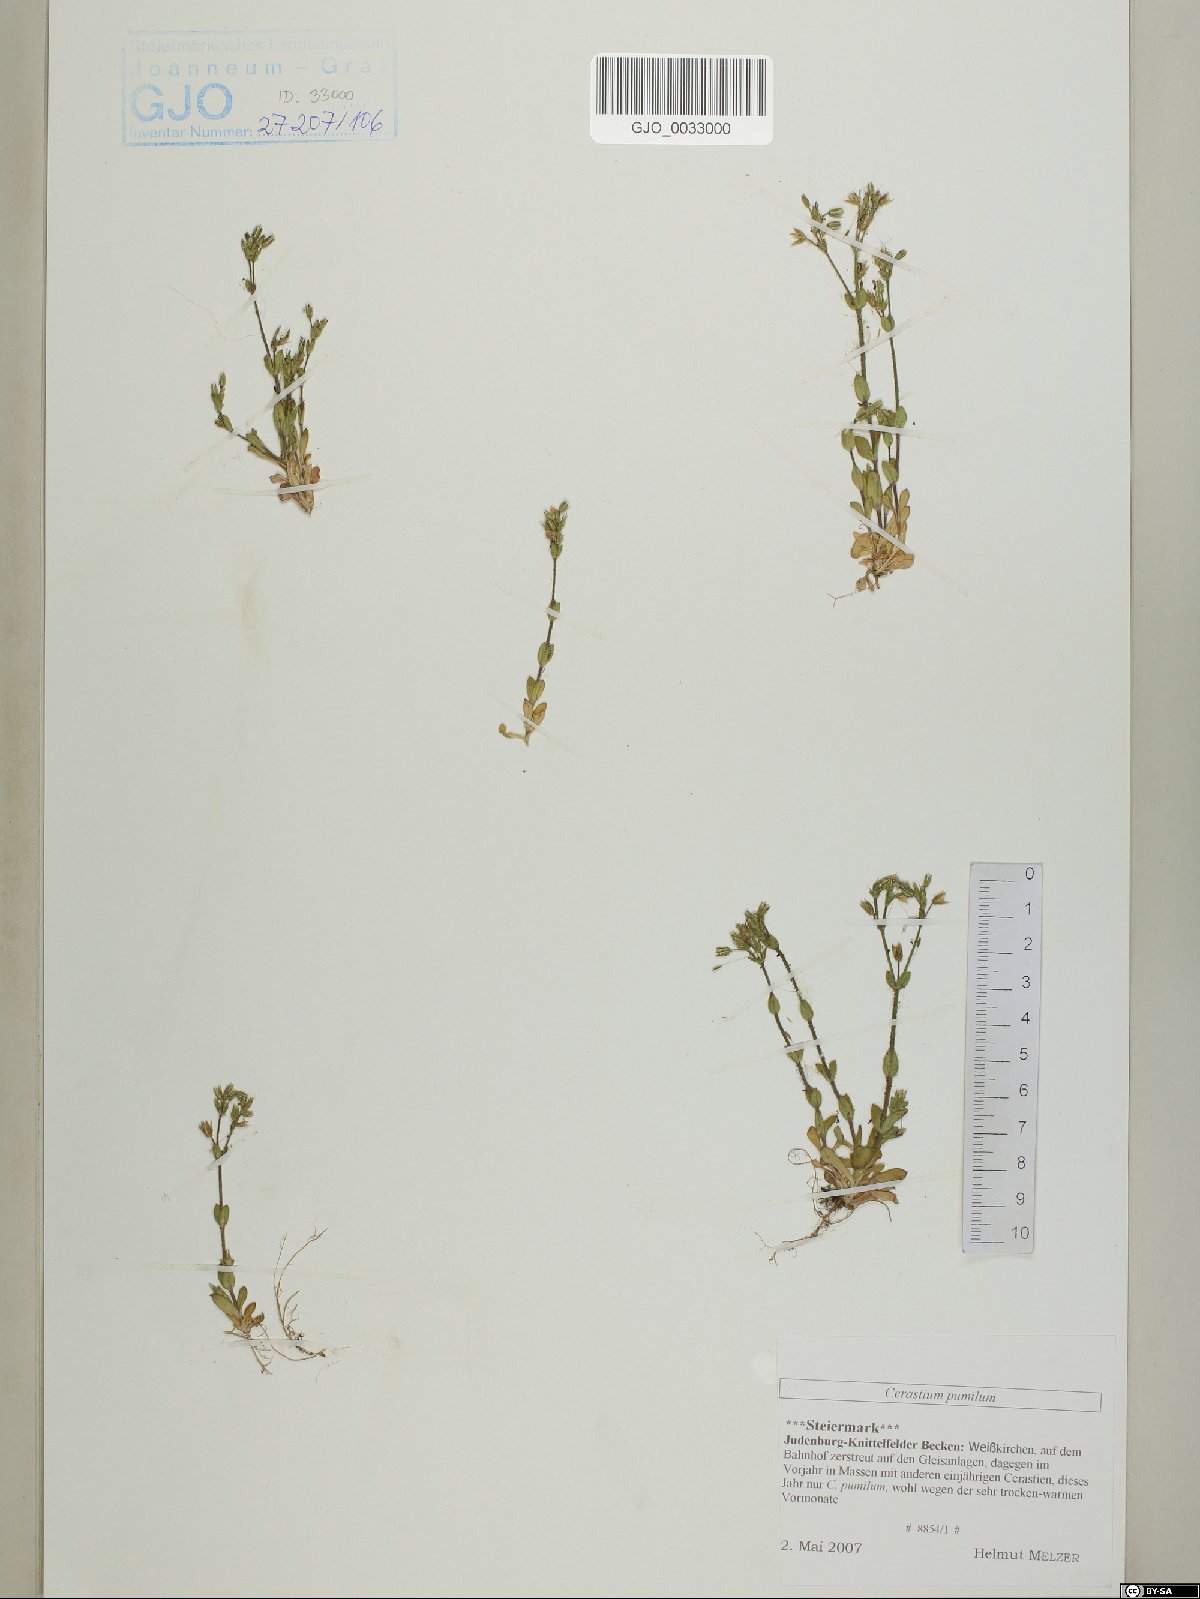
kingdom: Plantae
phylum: Tracheophyta
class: Magnoliopsida
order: Caryophyllales
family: Caryophyllaceae
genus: Cerastium
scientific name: Cerastium pumilum
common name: Dwarf mouse-ear
